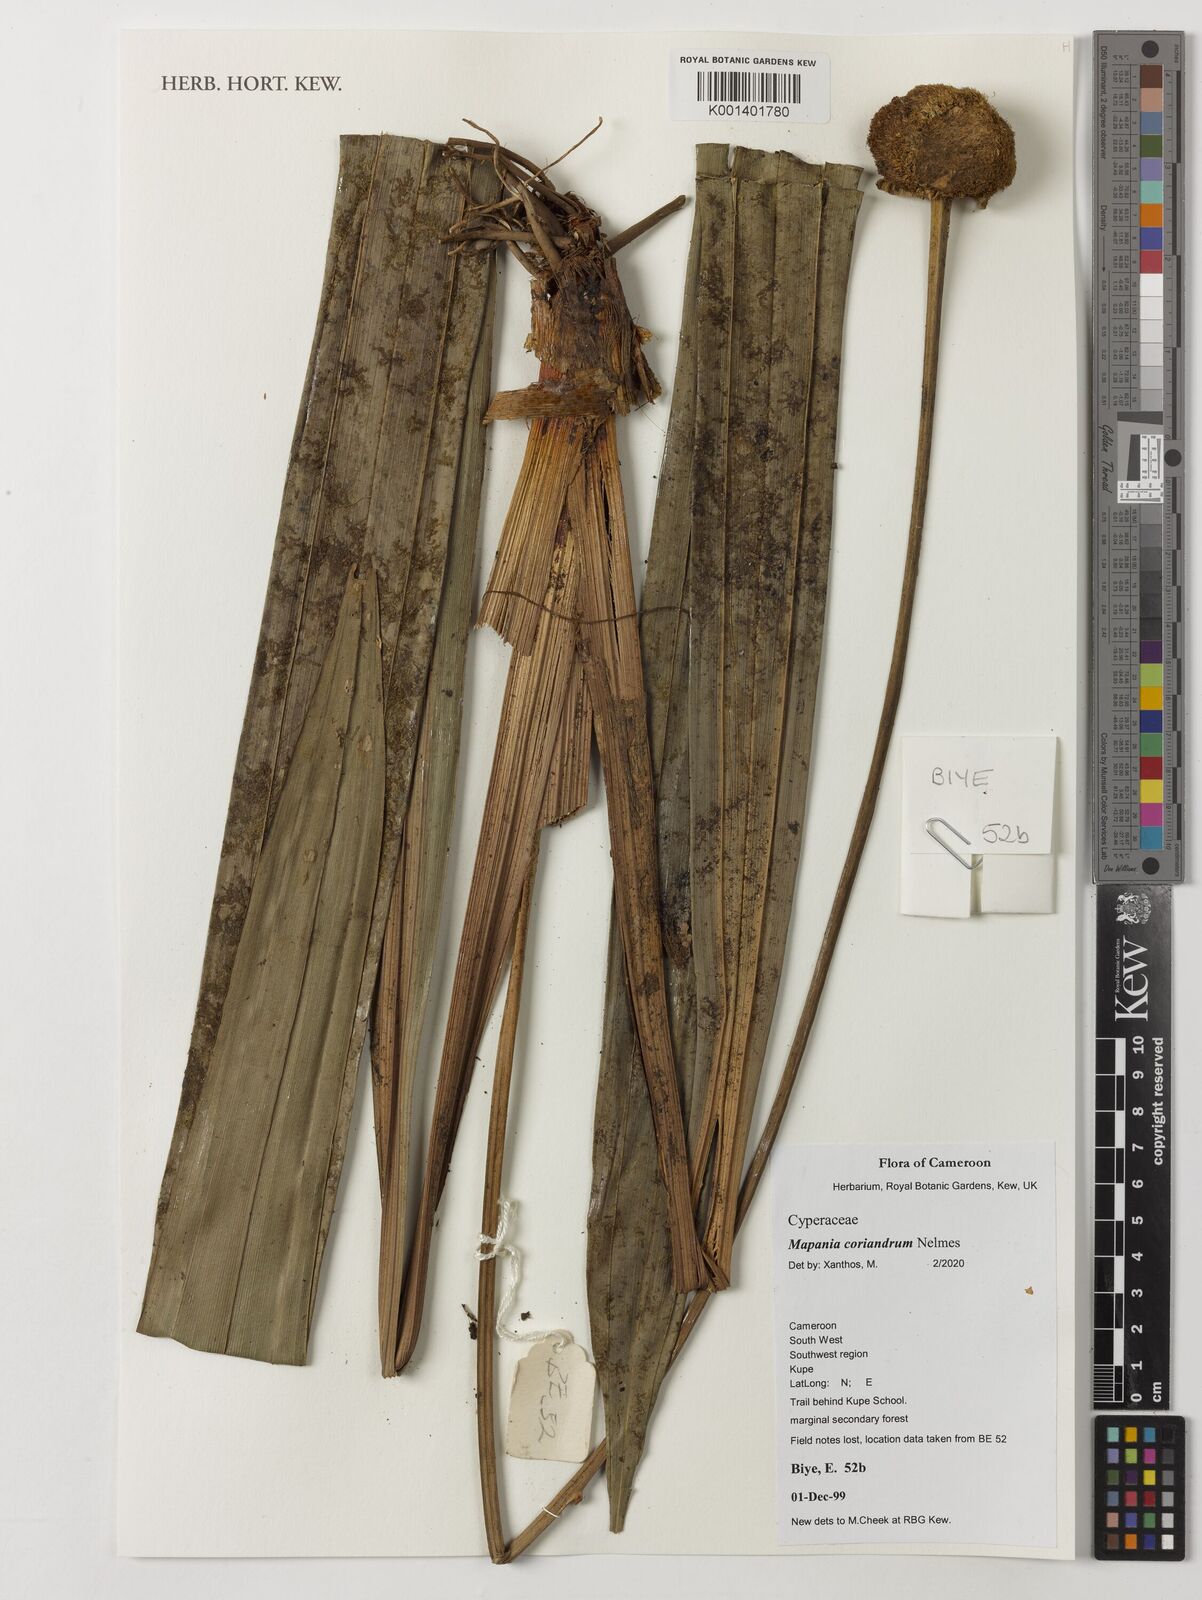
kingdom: Plantae
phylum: Tracheophyta
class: Liliopsida
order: Poales
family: Cyperaceae
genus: Mapania
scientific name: Mapania coriandrum
